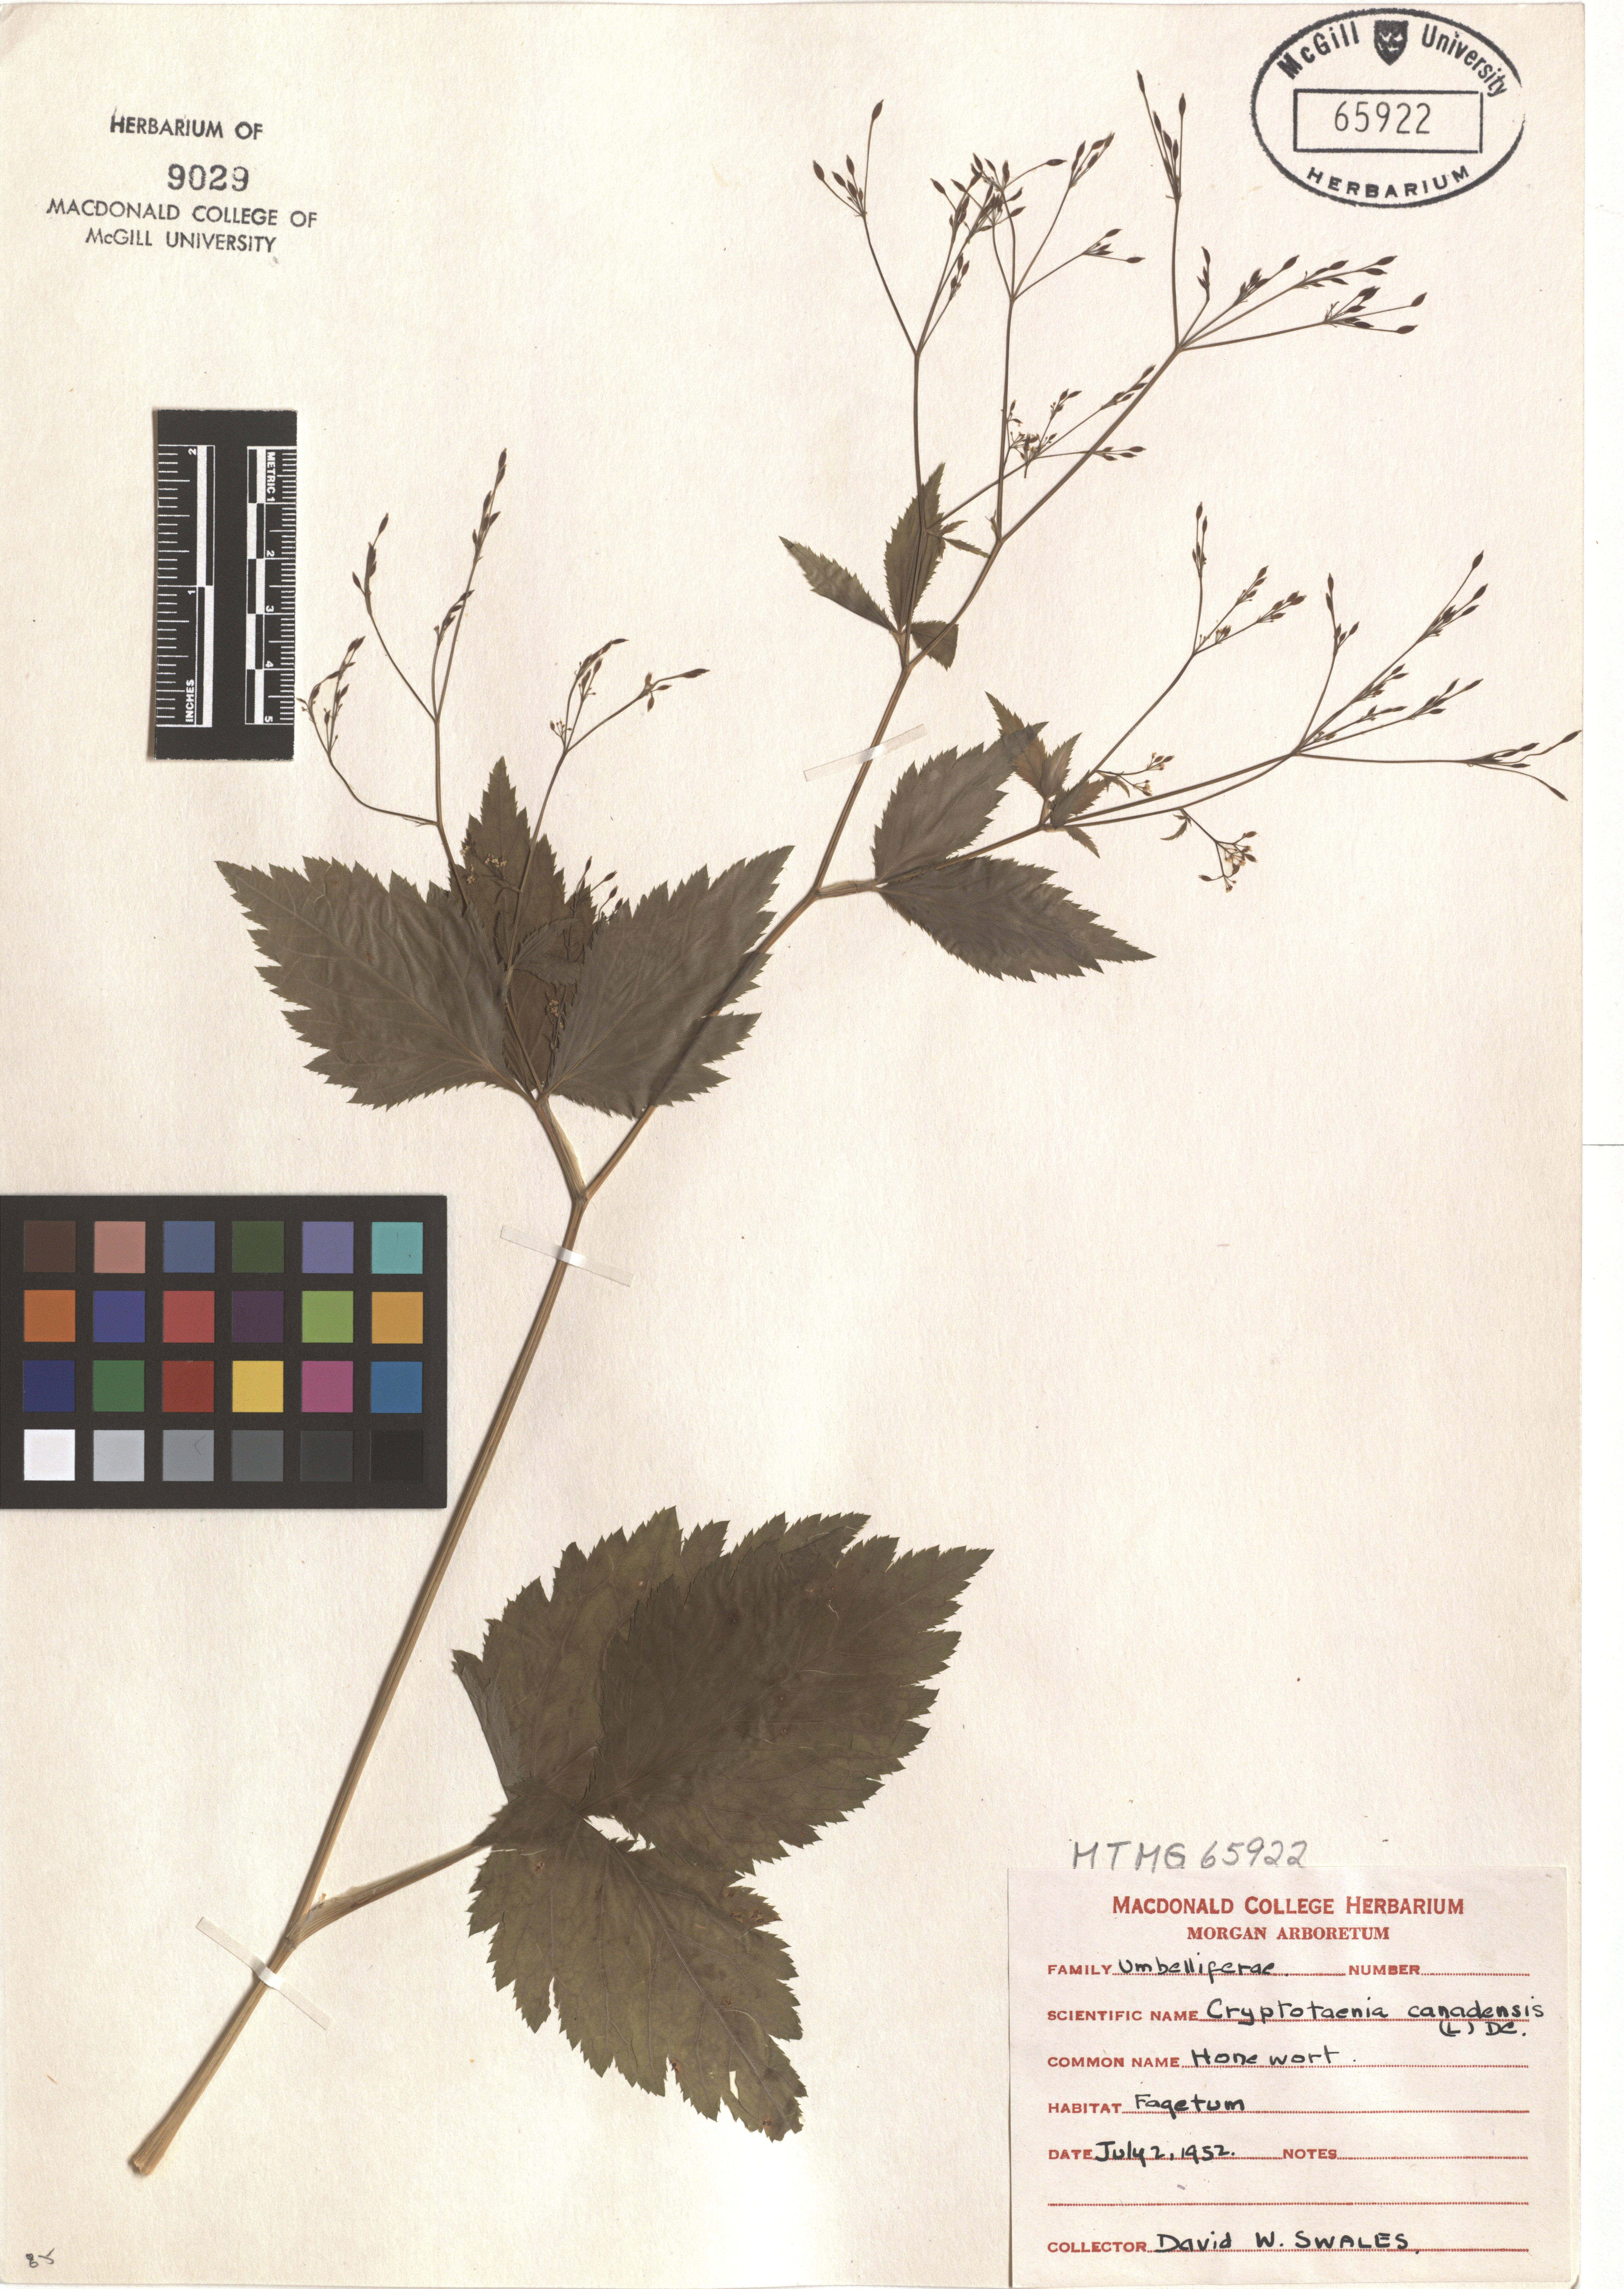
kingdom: Plantae
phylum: Tracheophyta
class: Magnoliopsida
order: Apiales
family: Apiaceae
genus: Cryptotaenia
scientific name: Cryptotaenia canadensis
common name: Honewort
